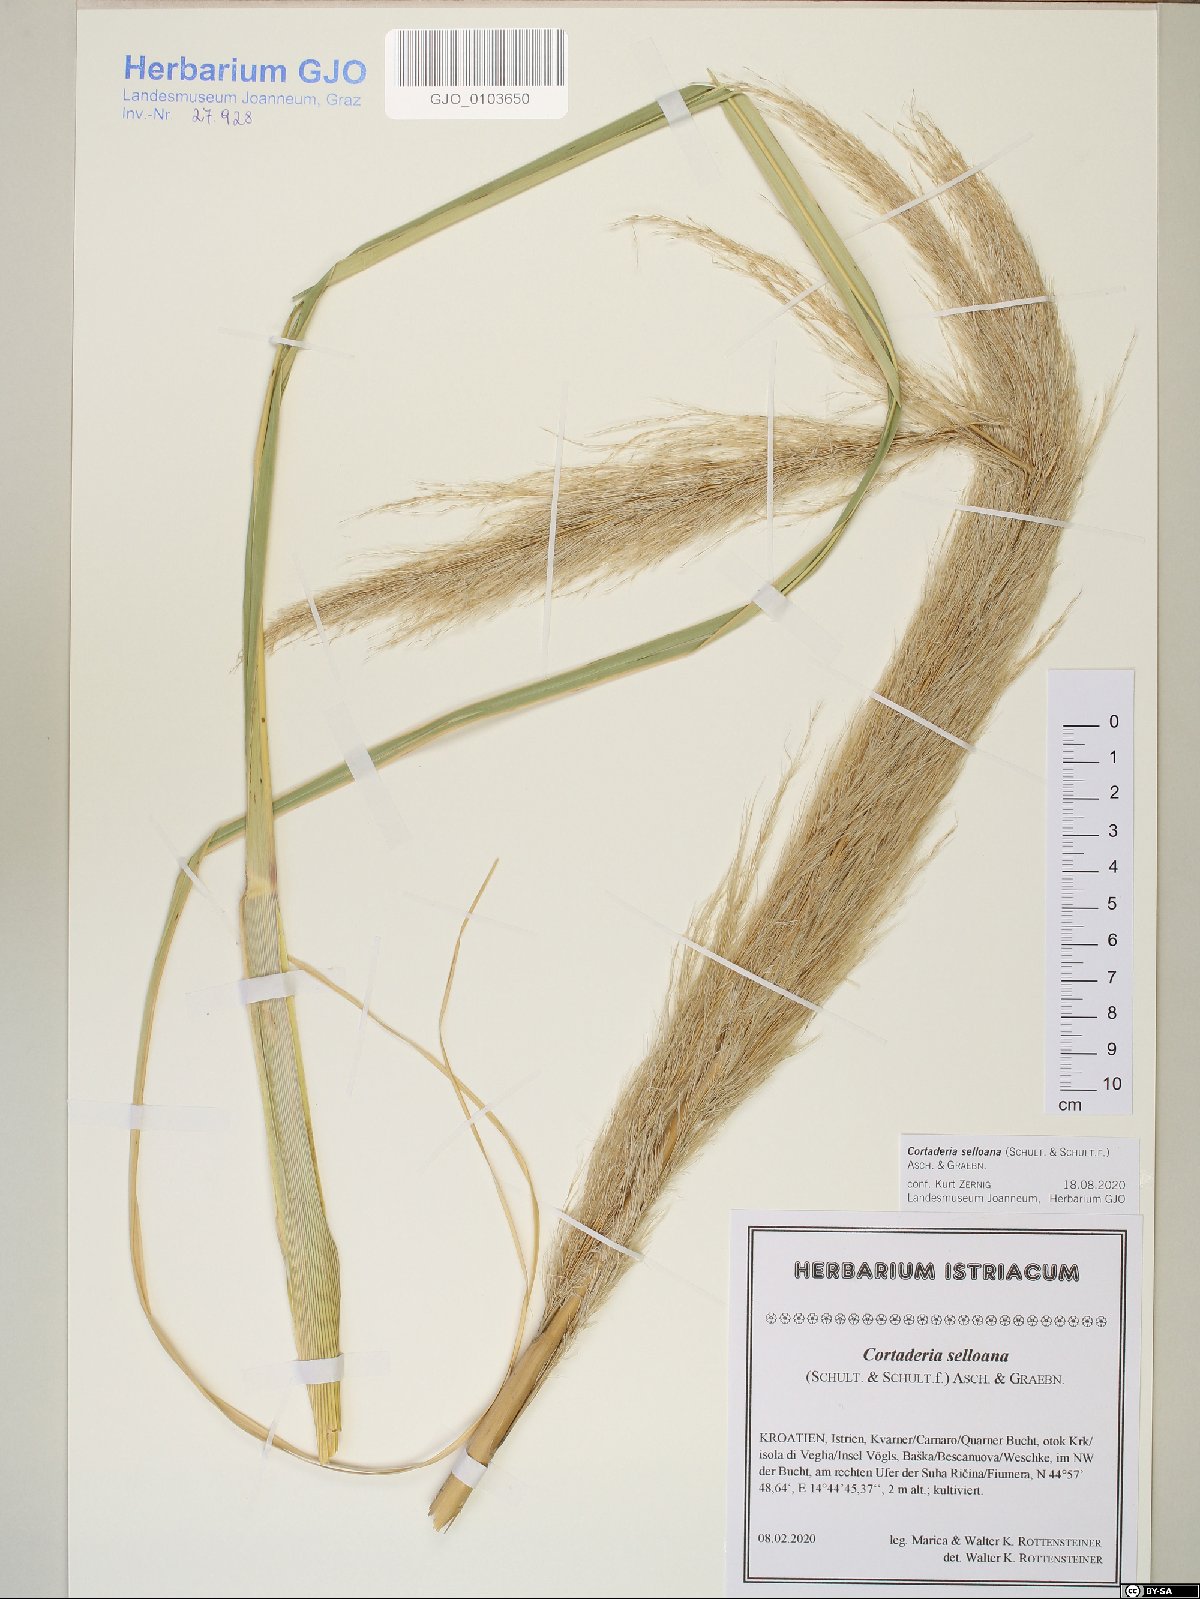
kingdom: Plantae
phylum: Tracheophyta
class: Liliopsida
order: Poales
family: Poaceae
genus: Cortaderia
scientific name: Cortaderia selloana
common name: Uruguayan pampas grass
